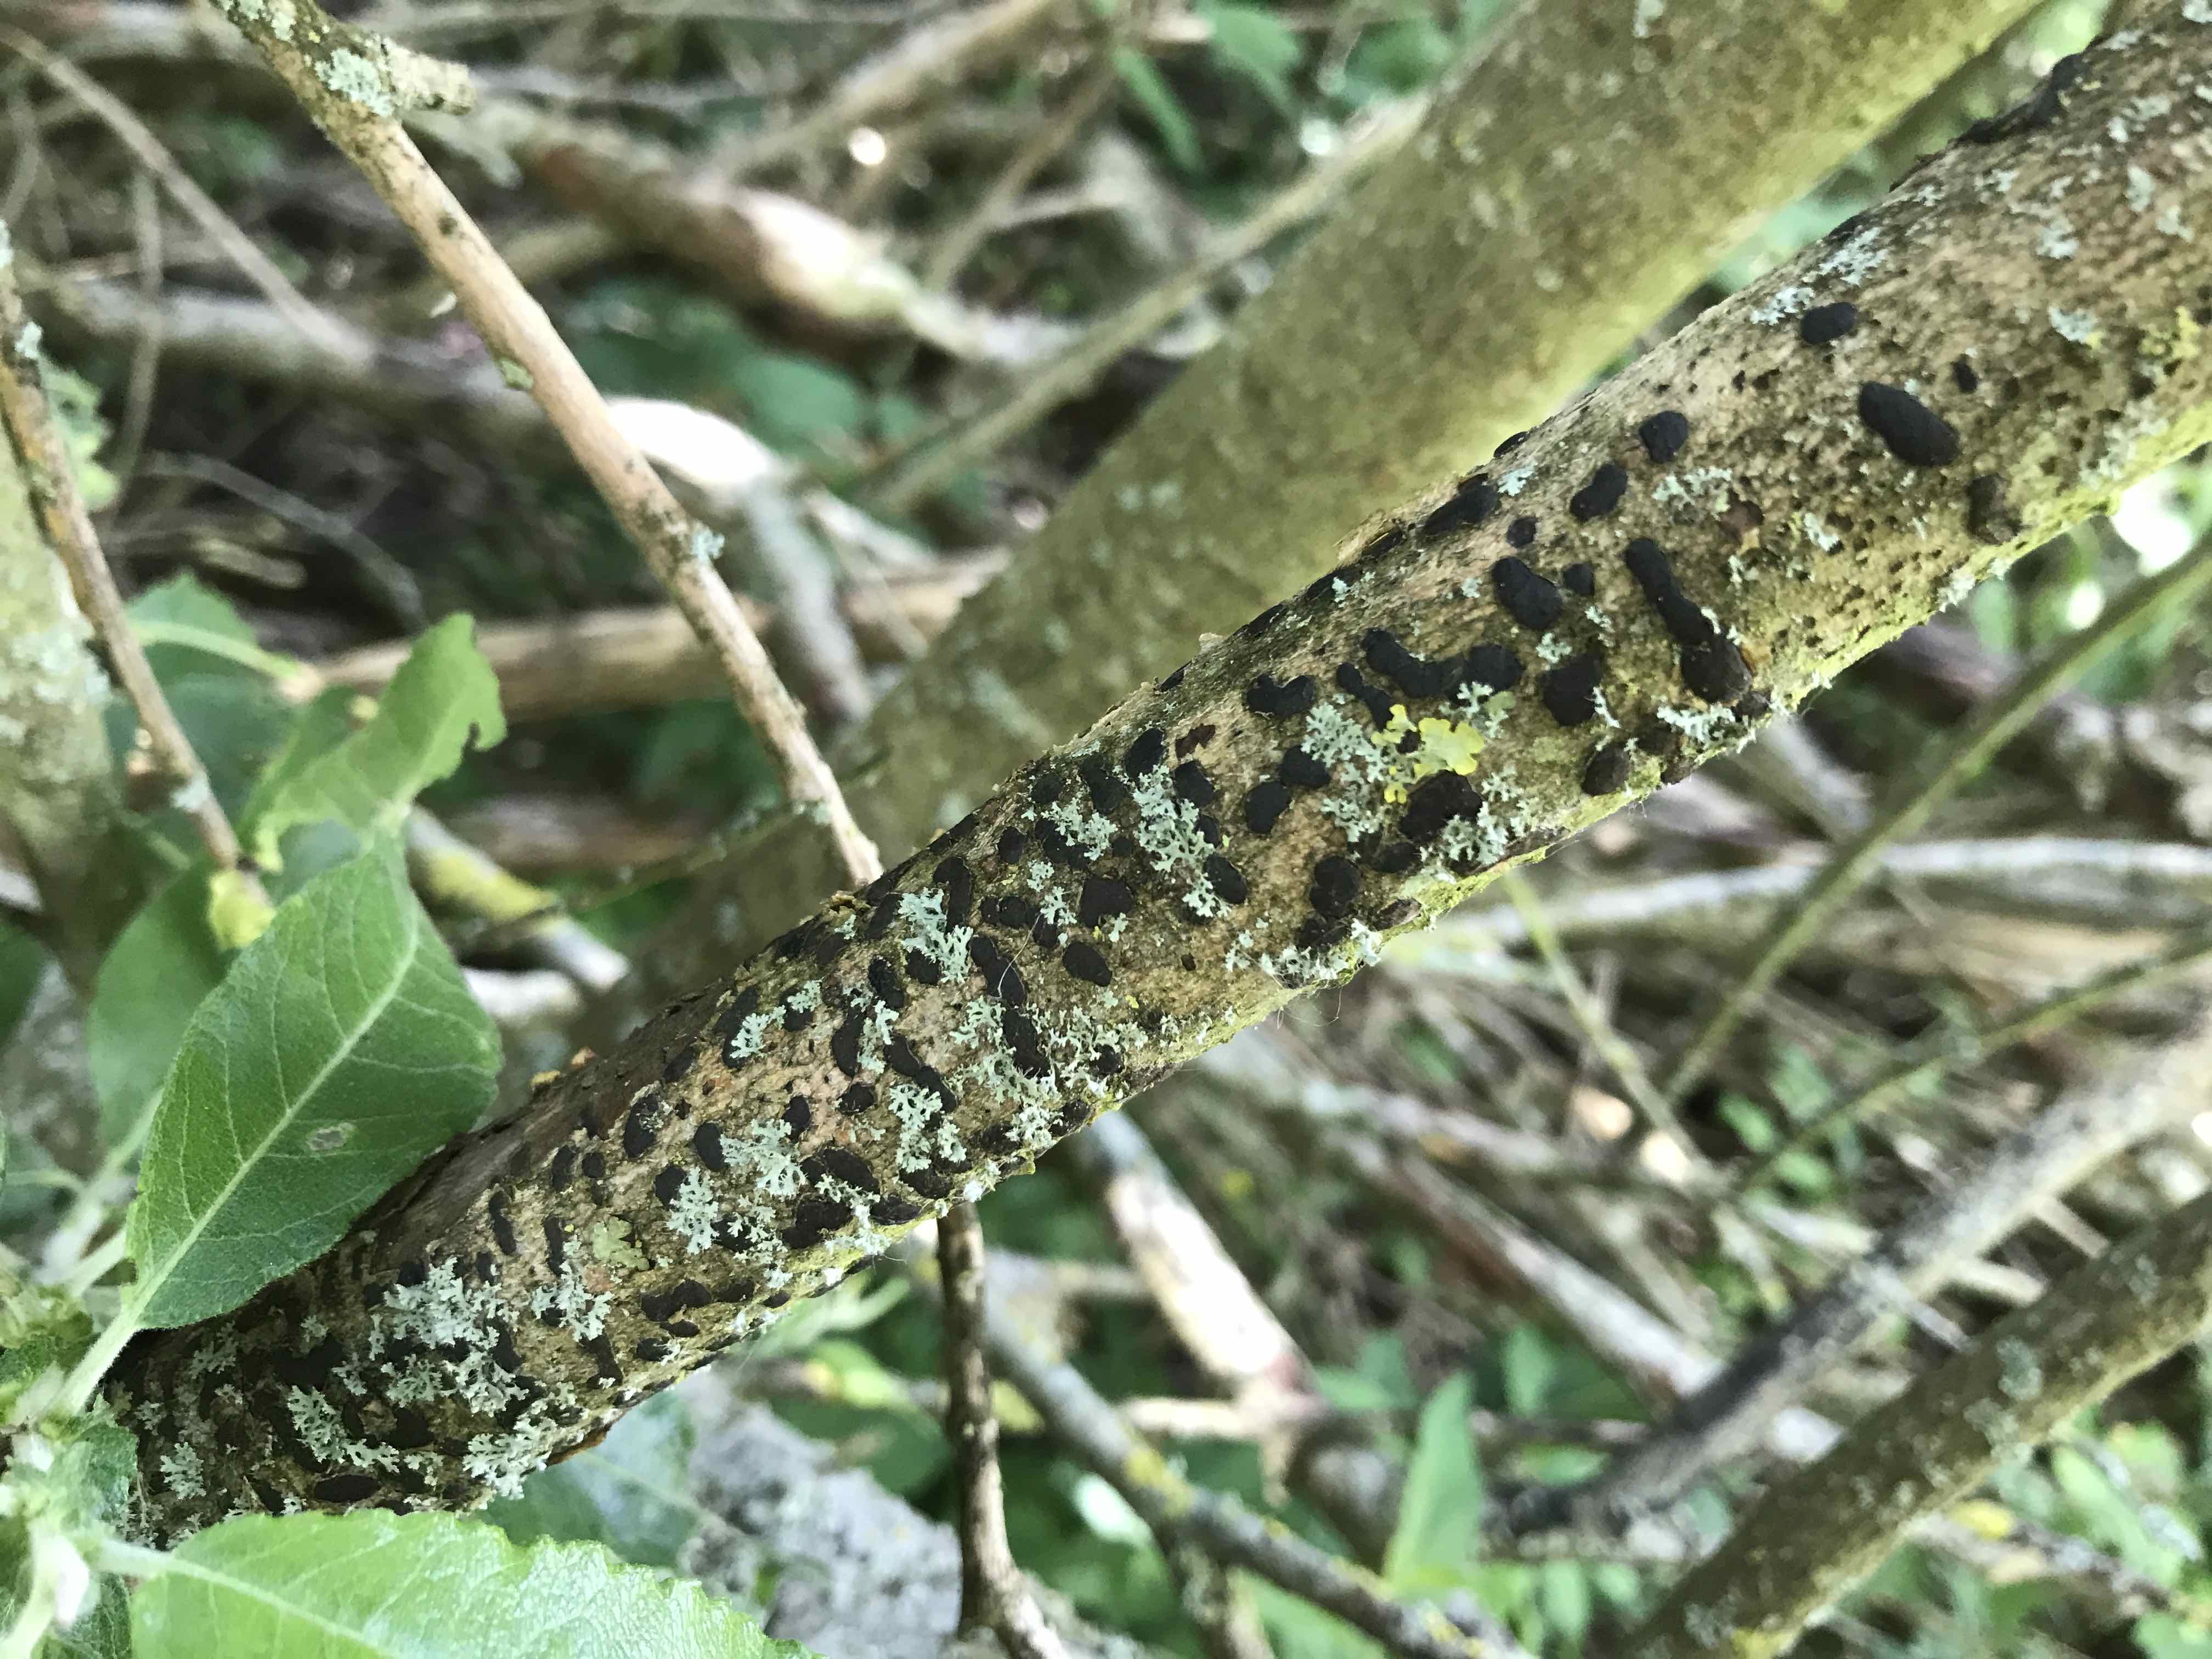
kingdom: Fungi
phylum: Ascomycota
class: Sordariomycetes
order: Xylariales
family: Diatrypaceae
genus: Diatrype
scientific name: Diatrype bullata
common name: pile-kulskorpe
